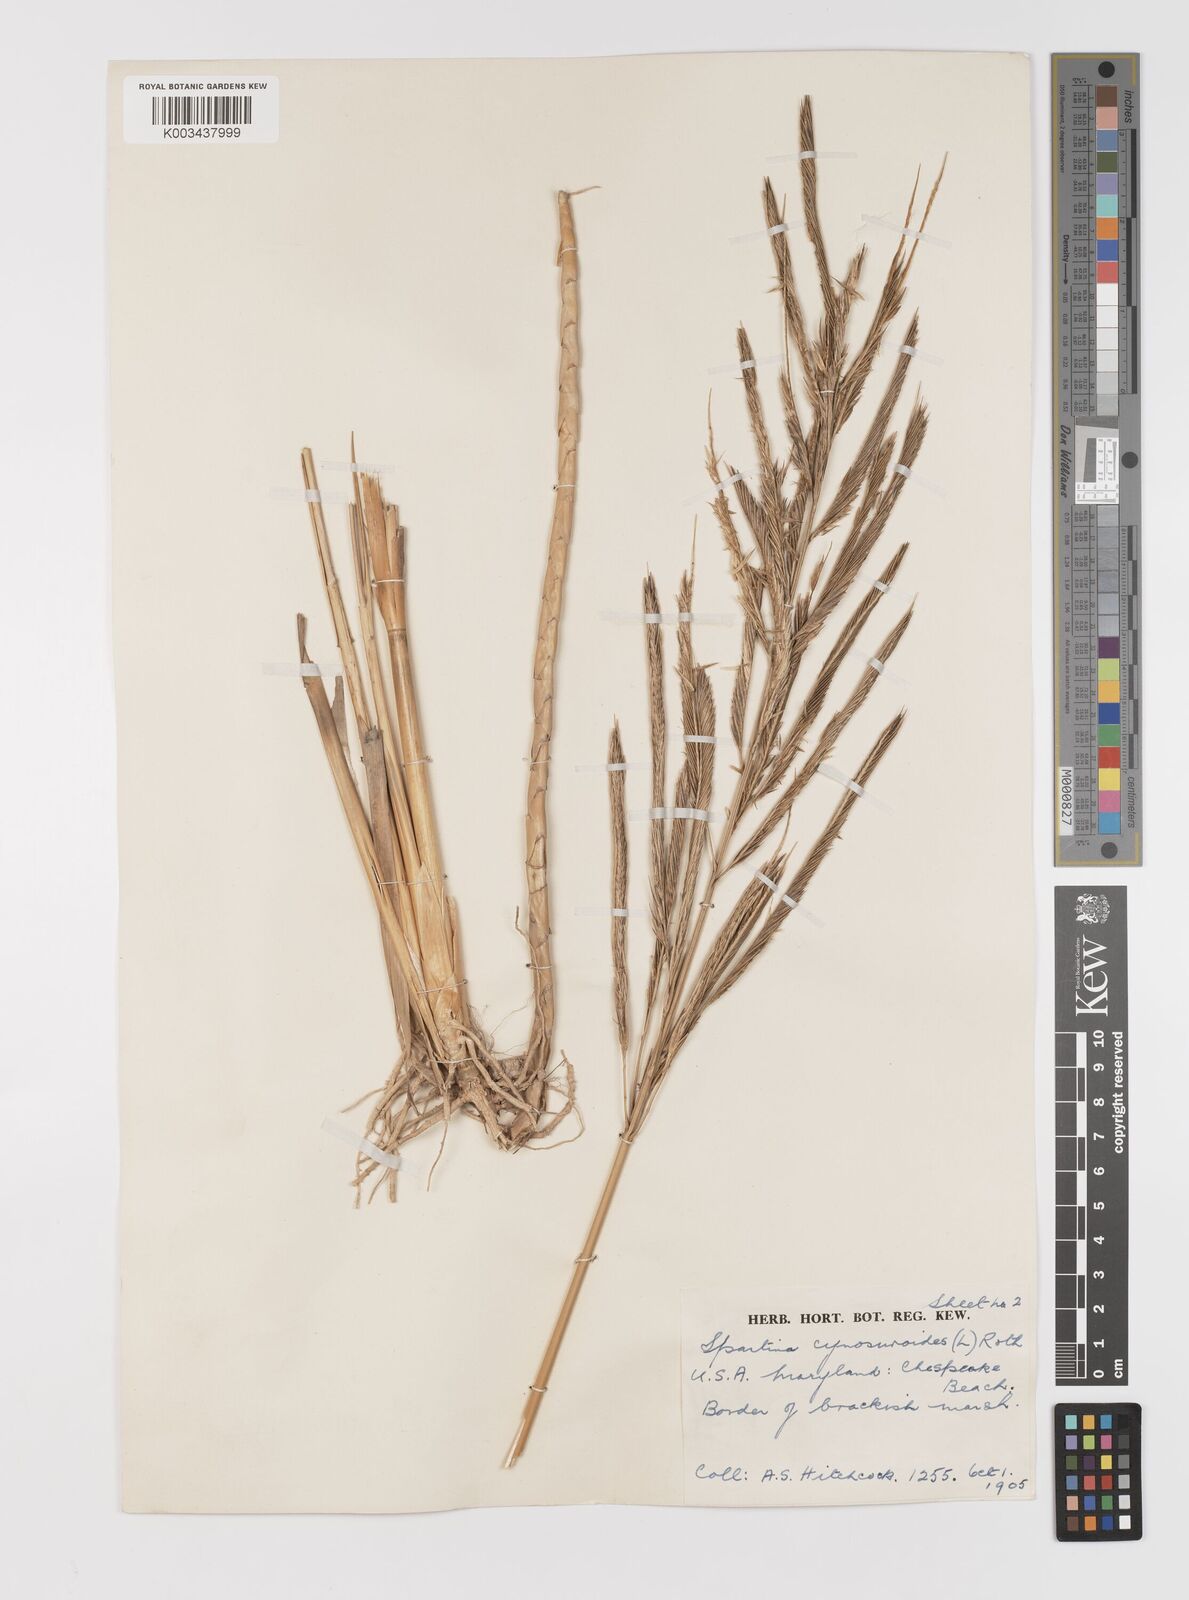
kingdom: Plantae
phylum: Tracheophyta
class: Liliopsida
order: Poales
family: Poaceae
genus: Sporobolus
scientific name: Sporobolus cynosuroides
